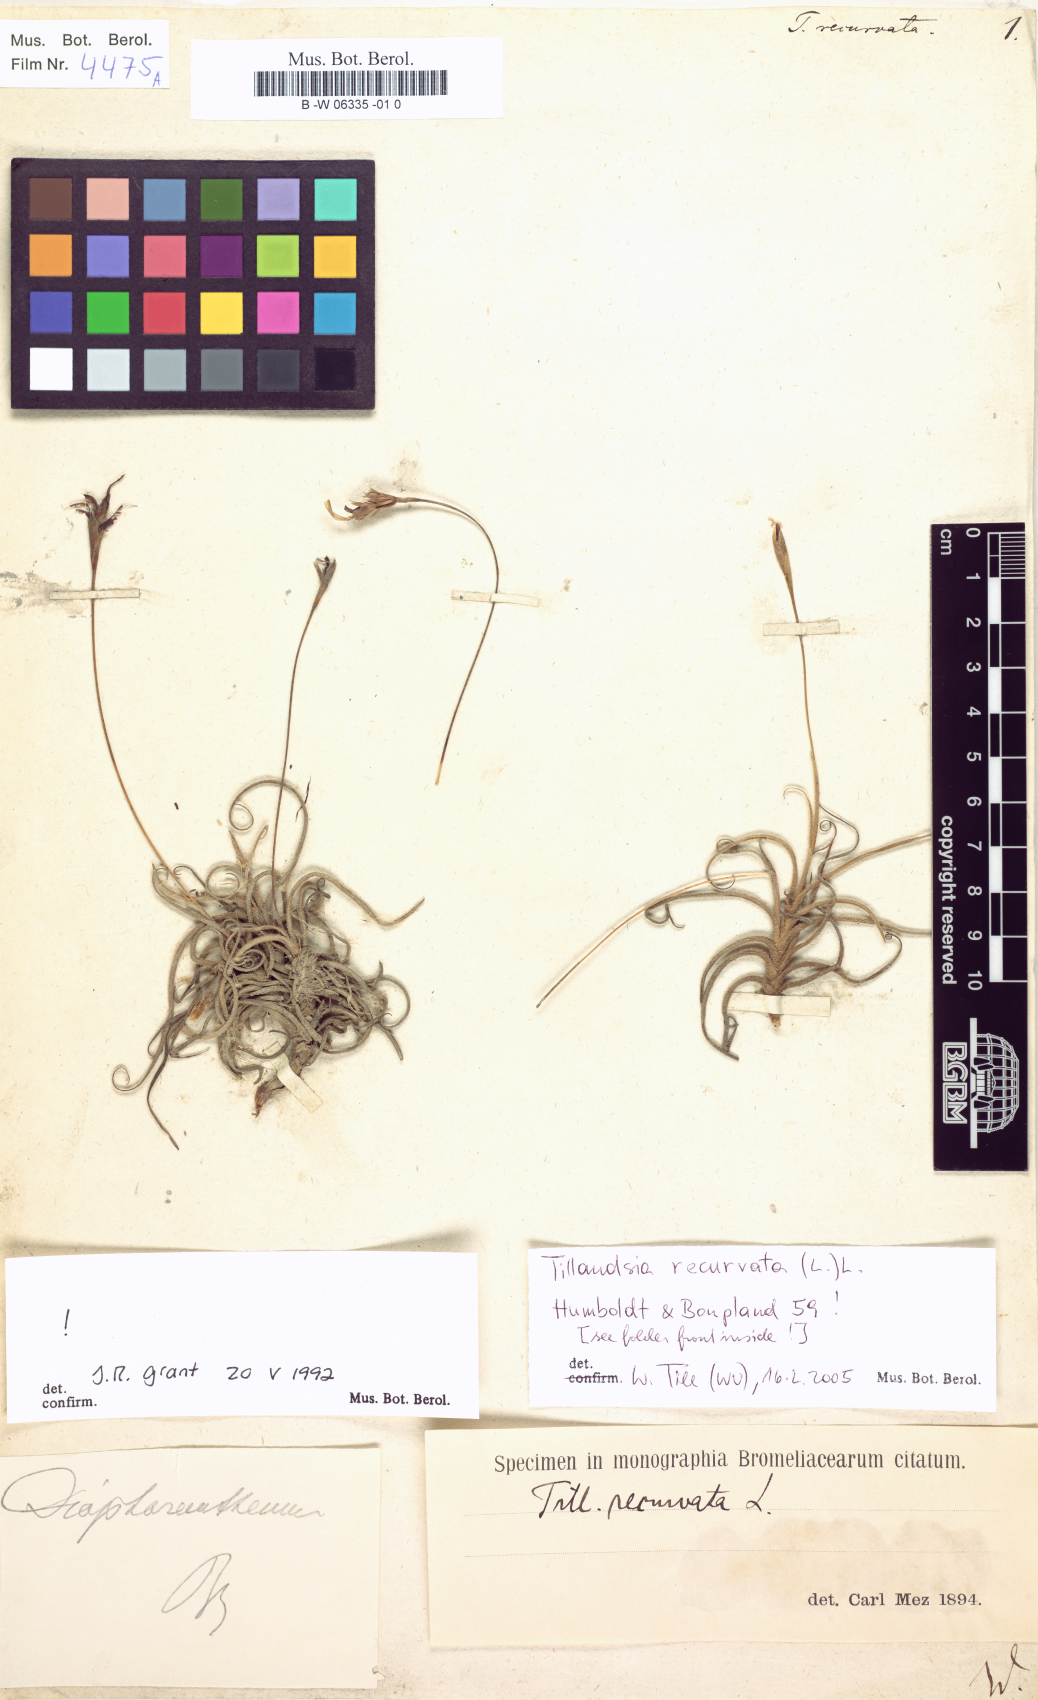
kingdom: Plantae
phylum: Tracheophyta
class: Liliopsida
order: Poales
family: Bromeliaceae
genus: Tillandsia
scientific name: Tillandsia recurvata
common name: Small ballmoss
